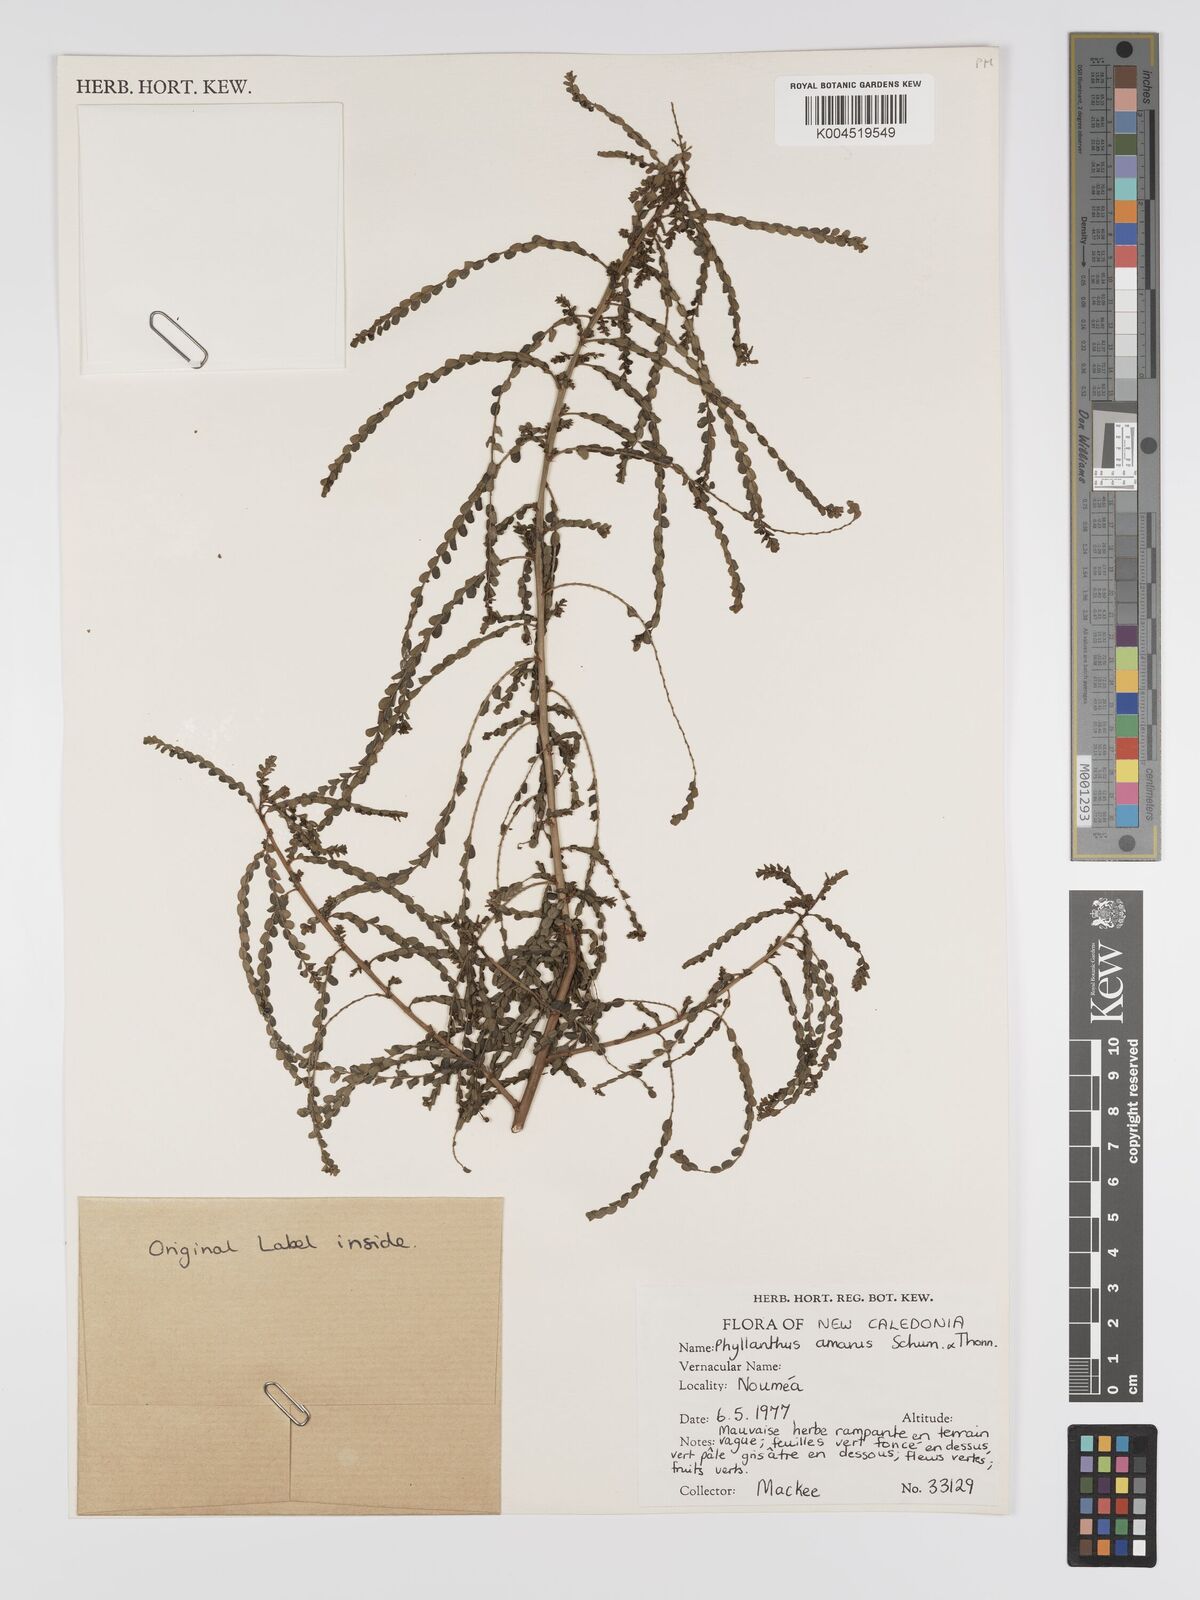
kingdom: Plantae
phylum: Tracheophyta
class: Magnoliopsida
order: Malpighiales
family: Phyllanthaceae
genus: Phyllanthus
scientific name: Phyllanthus aeneus
